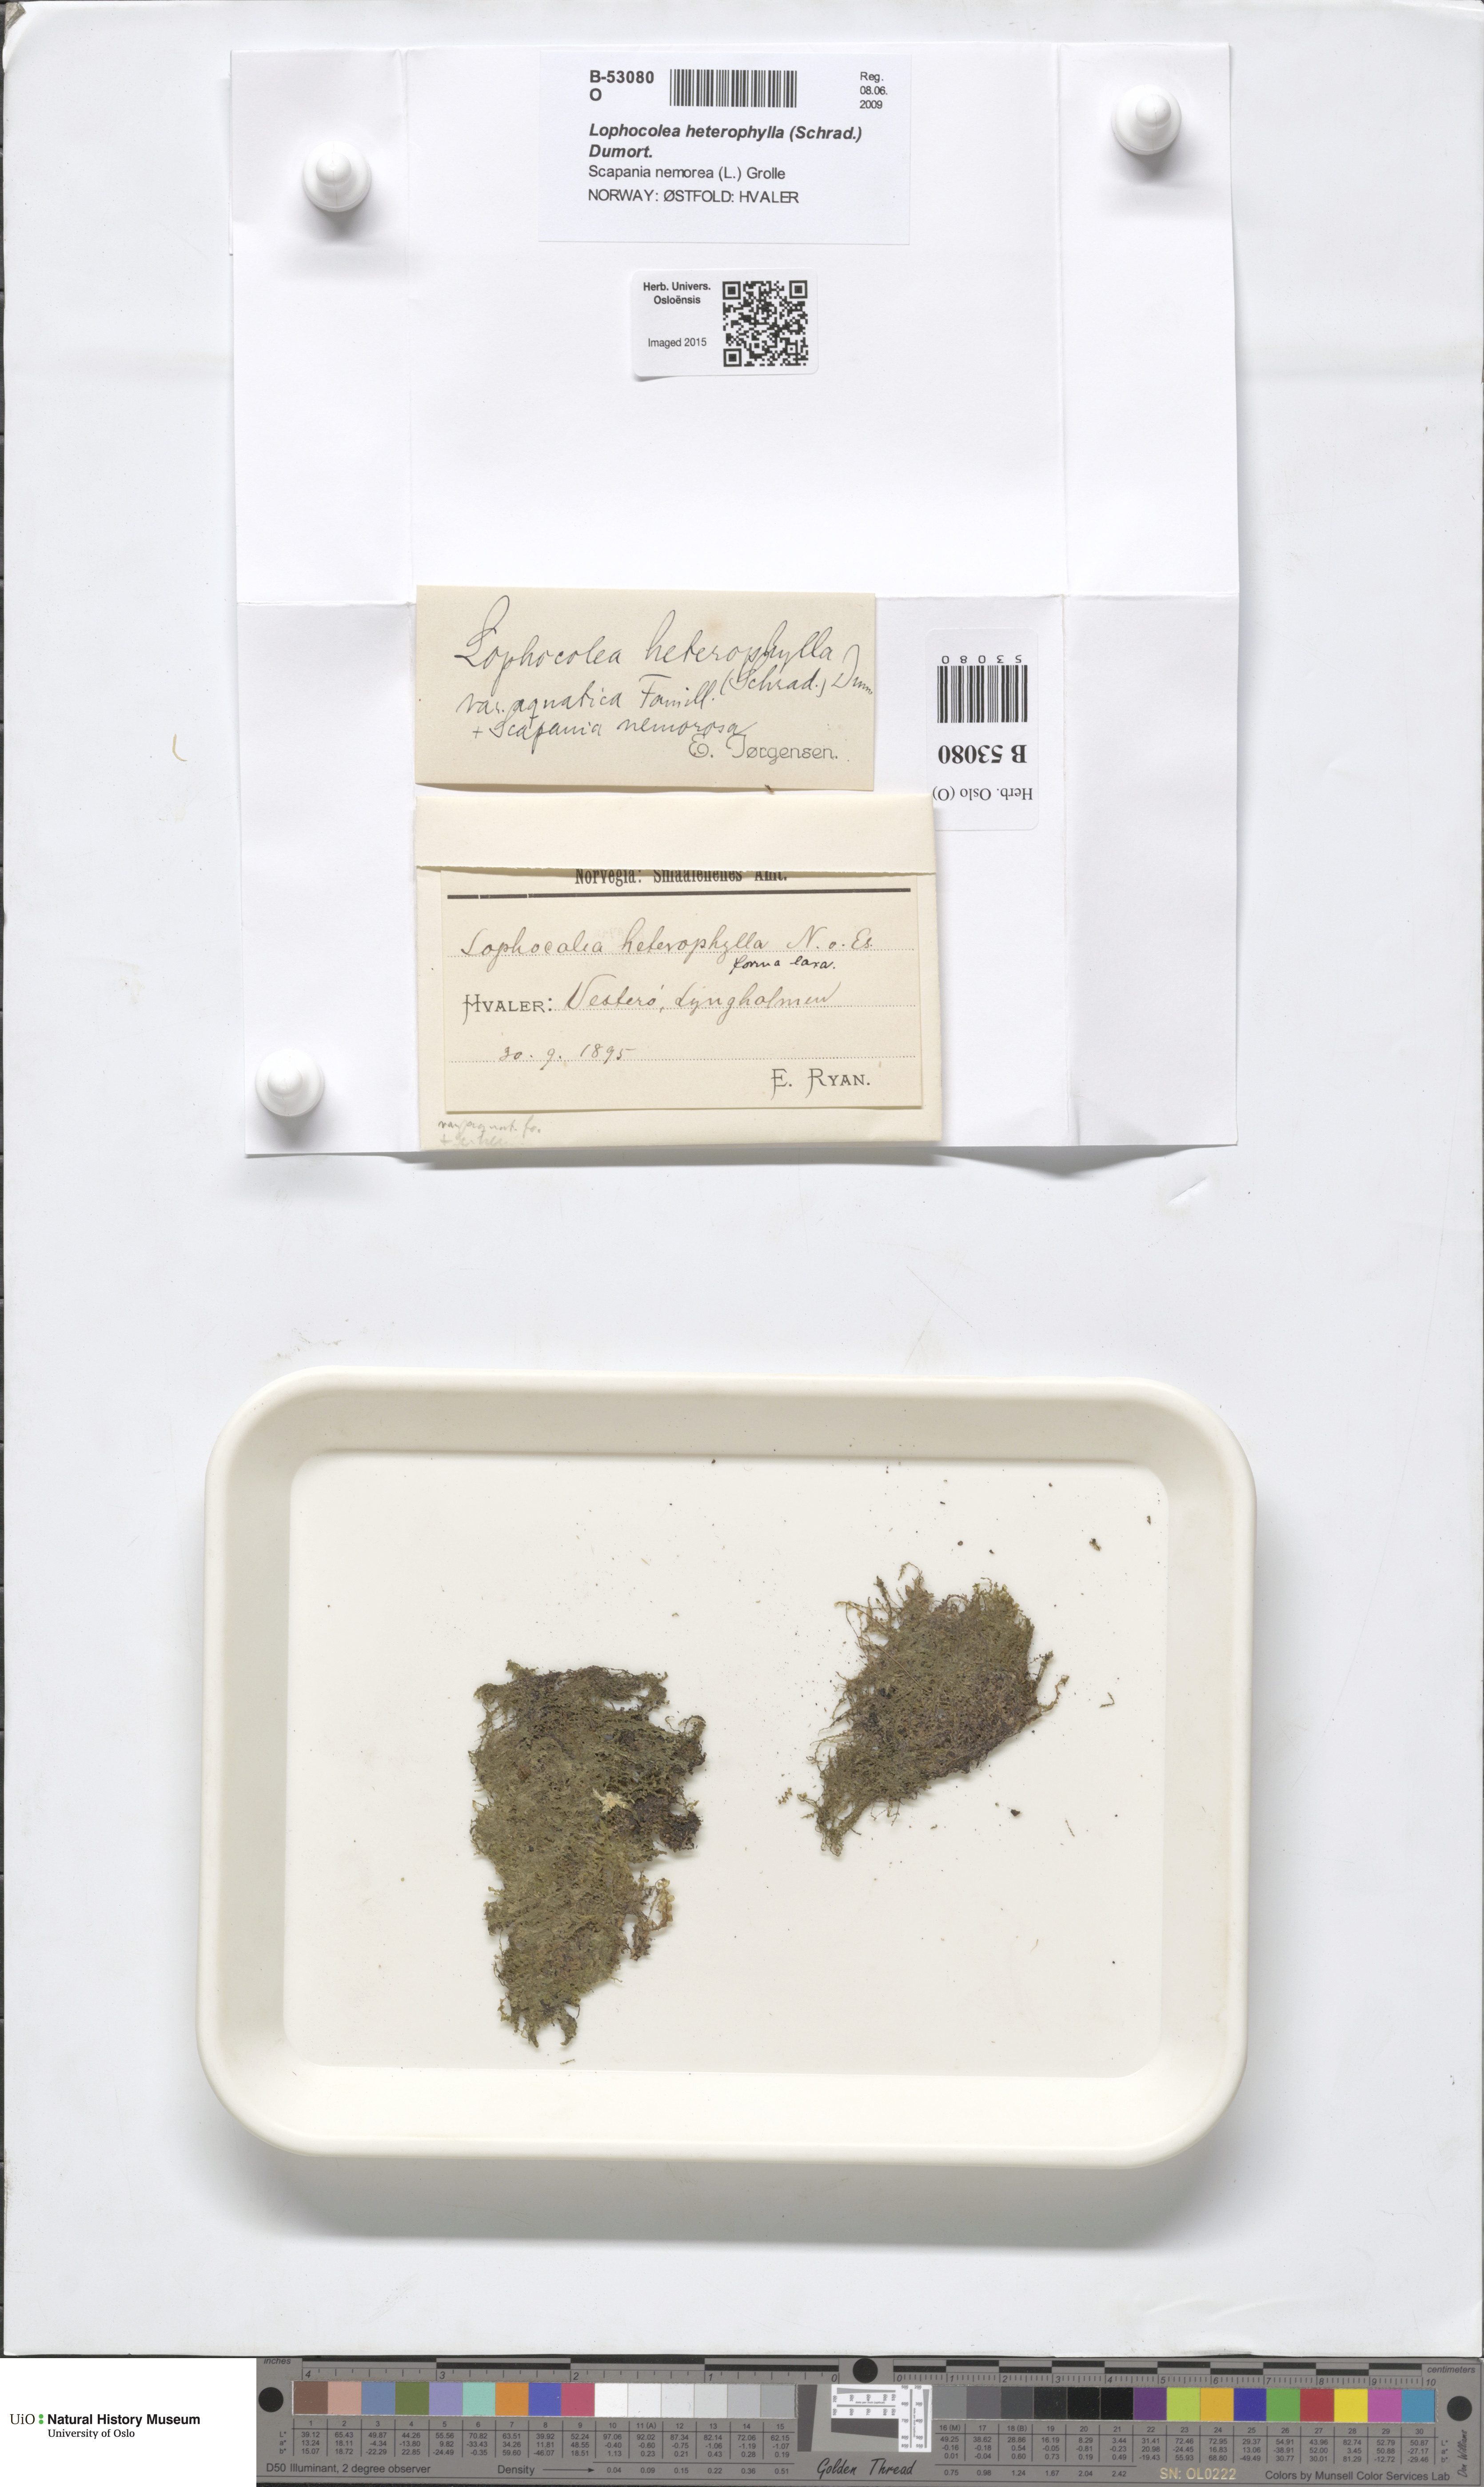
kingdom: Plantae
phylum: Marchantiophyta
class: Jungermanniopsida
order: Jungermanniales
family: Lophocoleaceae
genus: Lophocolea
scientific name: Lophocolea heterophylla
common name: Variable-leaved crestwort
